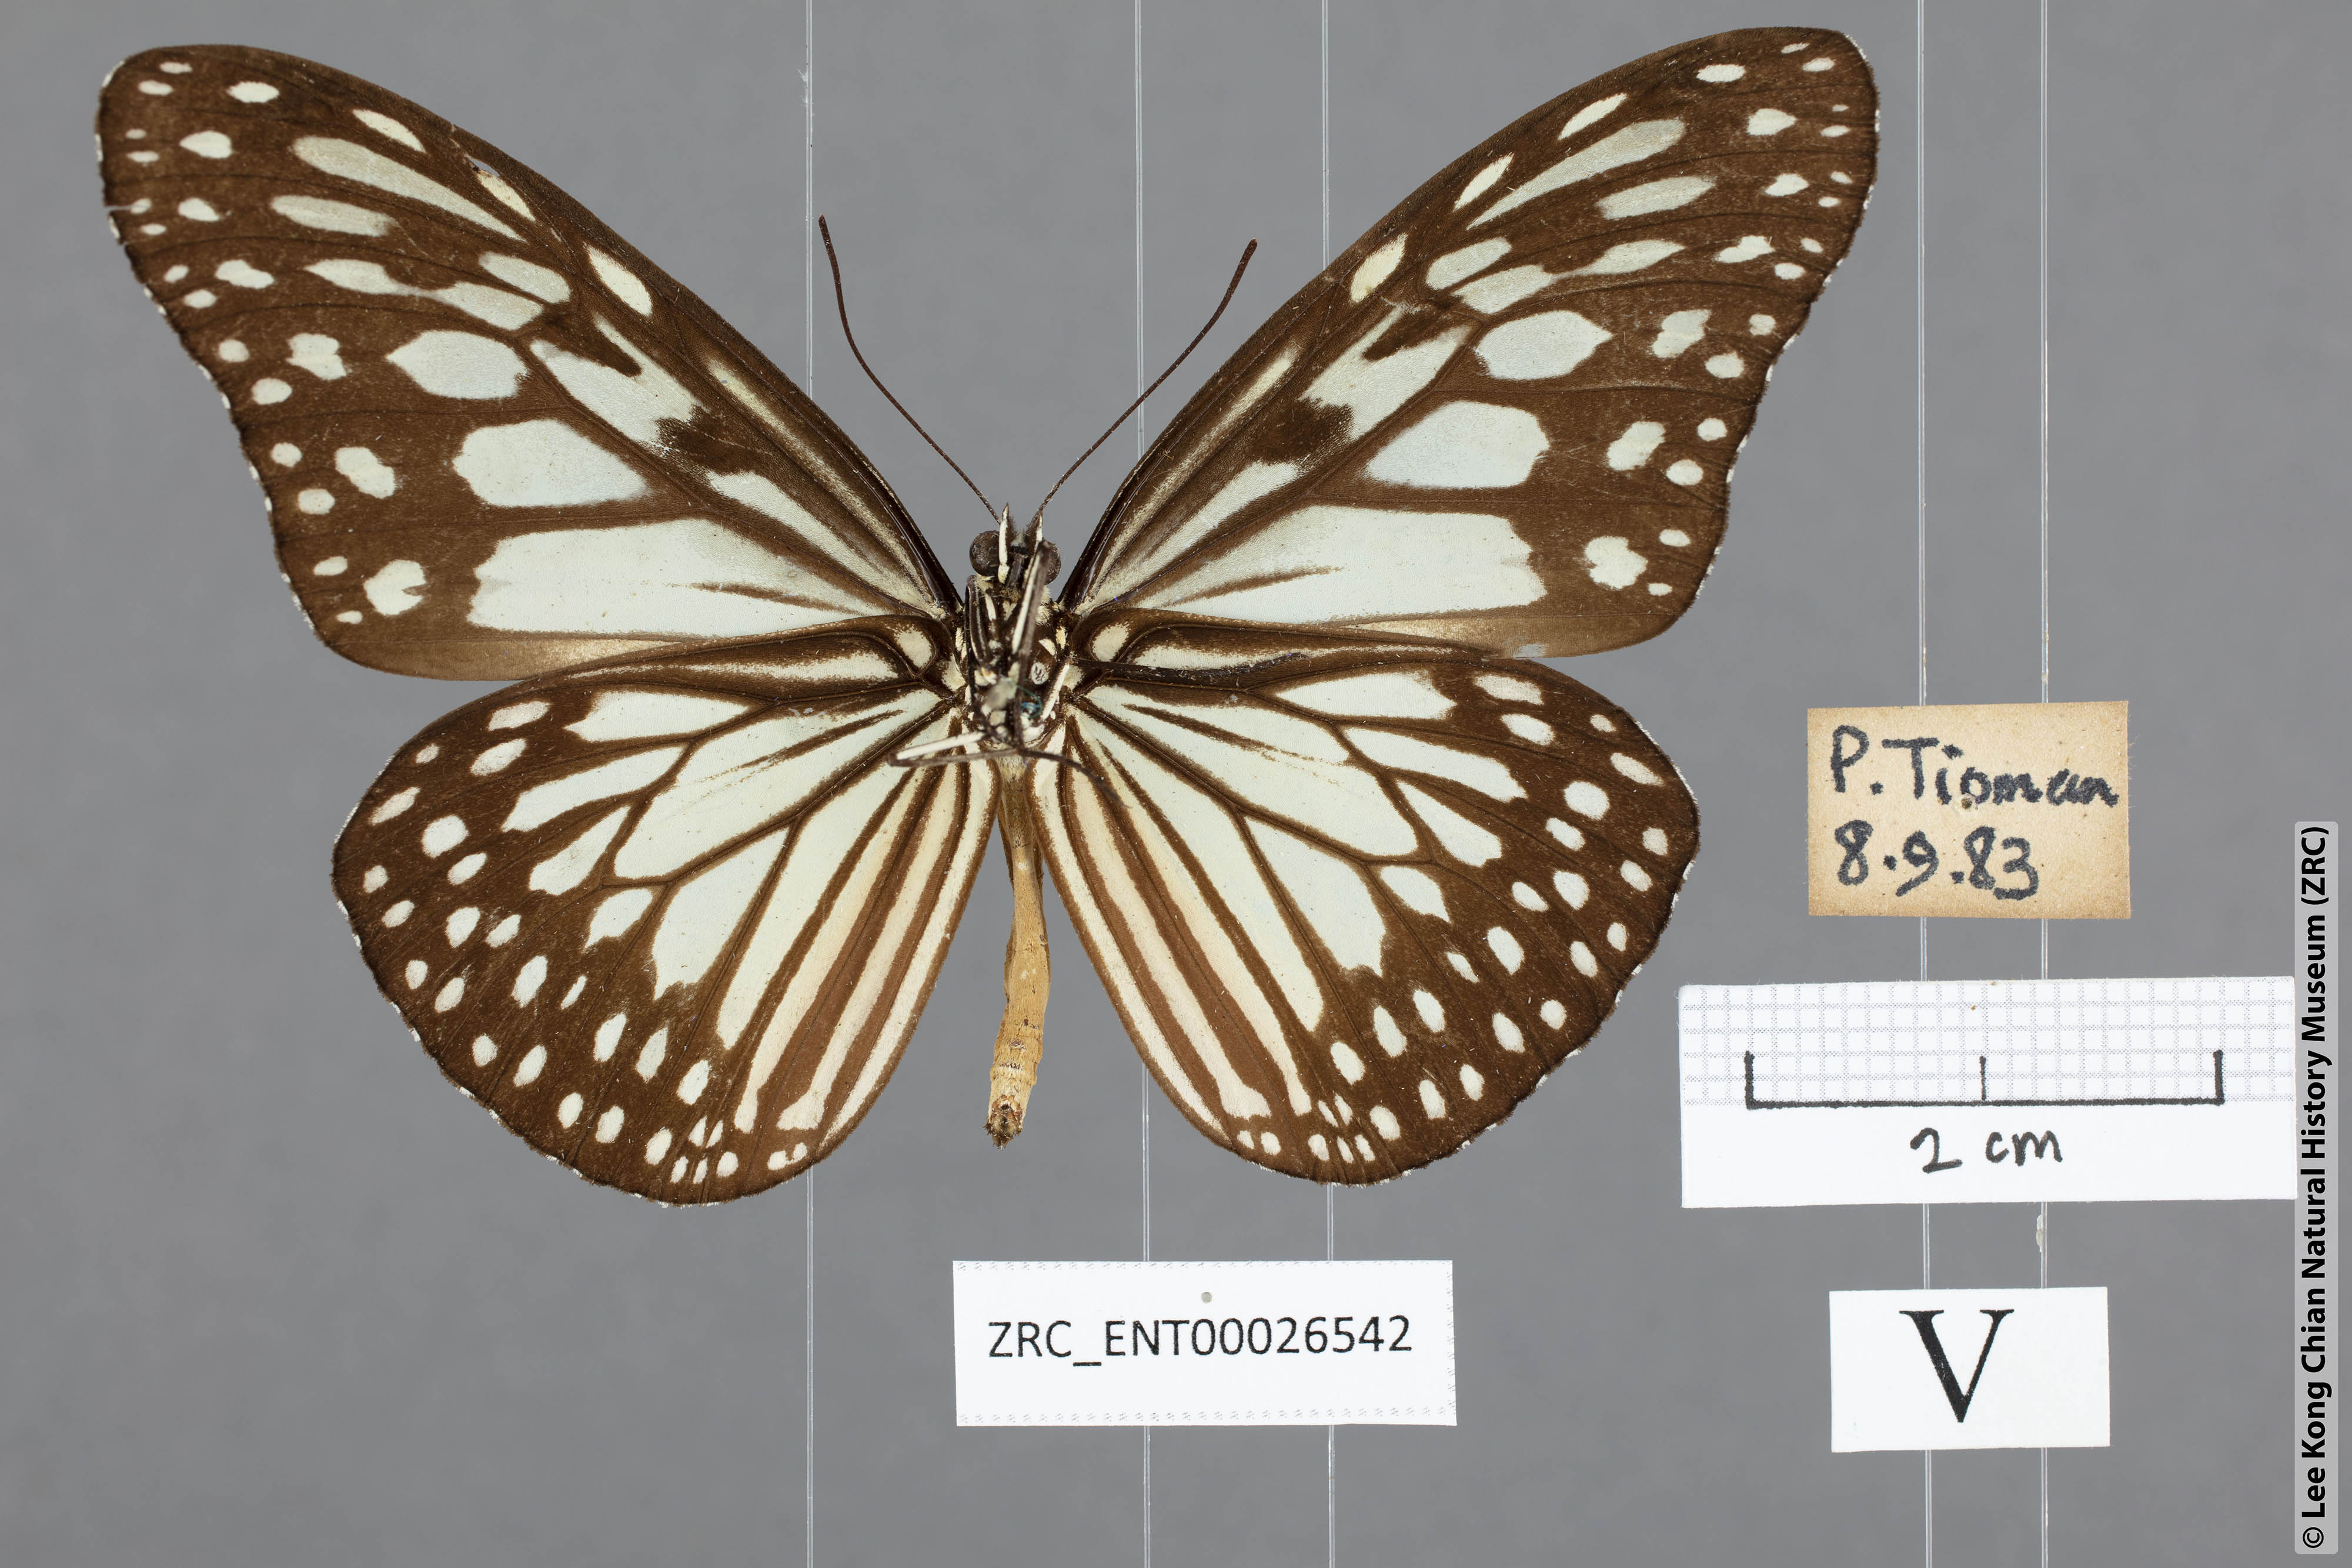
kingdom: Animalia
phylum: Arthropoda
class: Insecta
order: Lepidoptera
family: Nymphalidae
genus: Ideopsis
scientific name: Ideopsis juventa
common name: Grey glassy tiger
